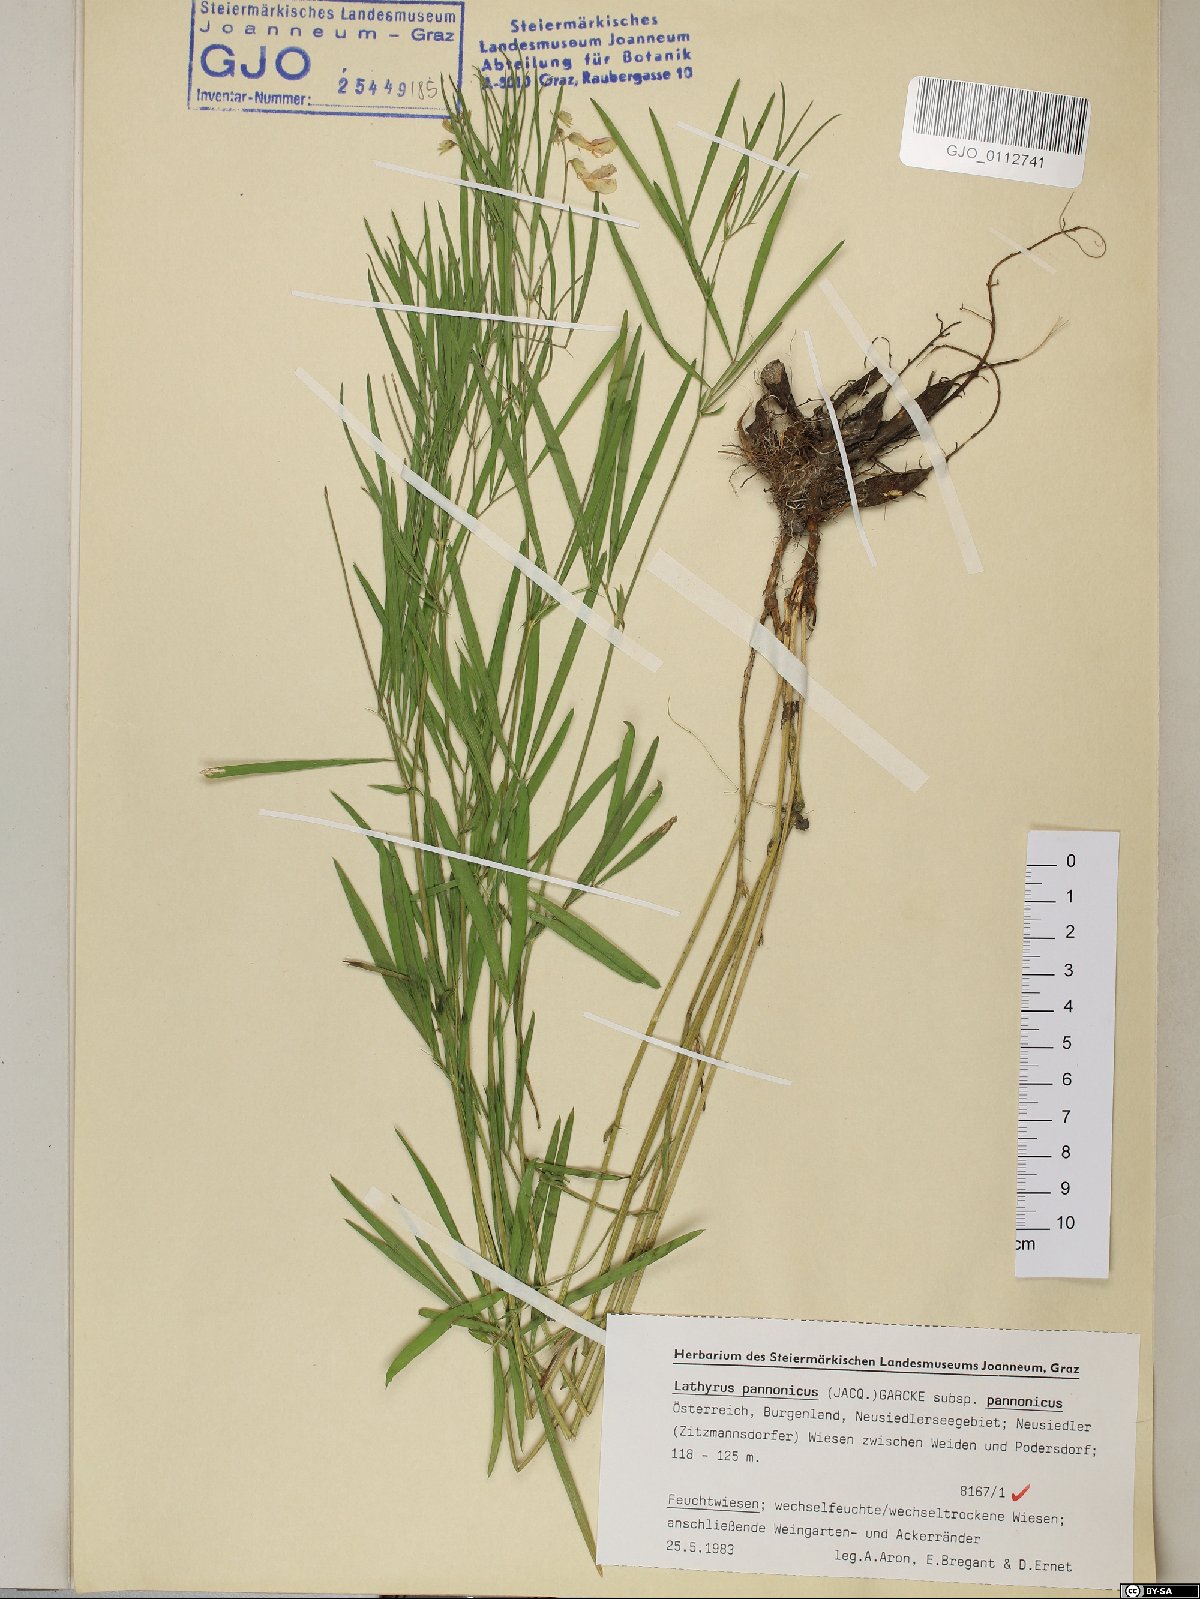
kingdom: Plantae
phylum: Tracheophyta
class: Magnoliopsida
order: Fabales
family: Fabaceae
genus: Lathyrus
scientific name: Lathyrus pannonicus
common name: Pea
